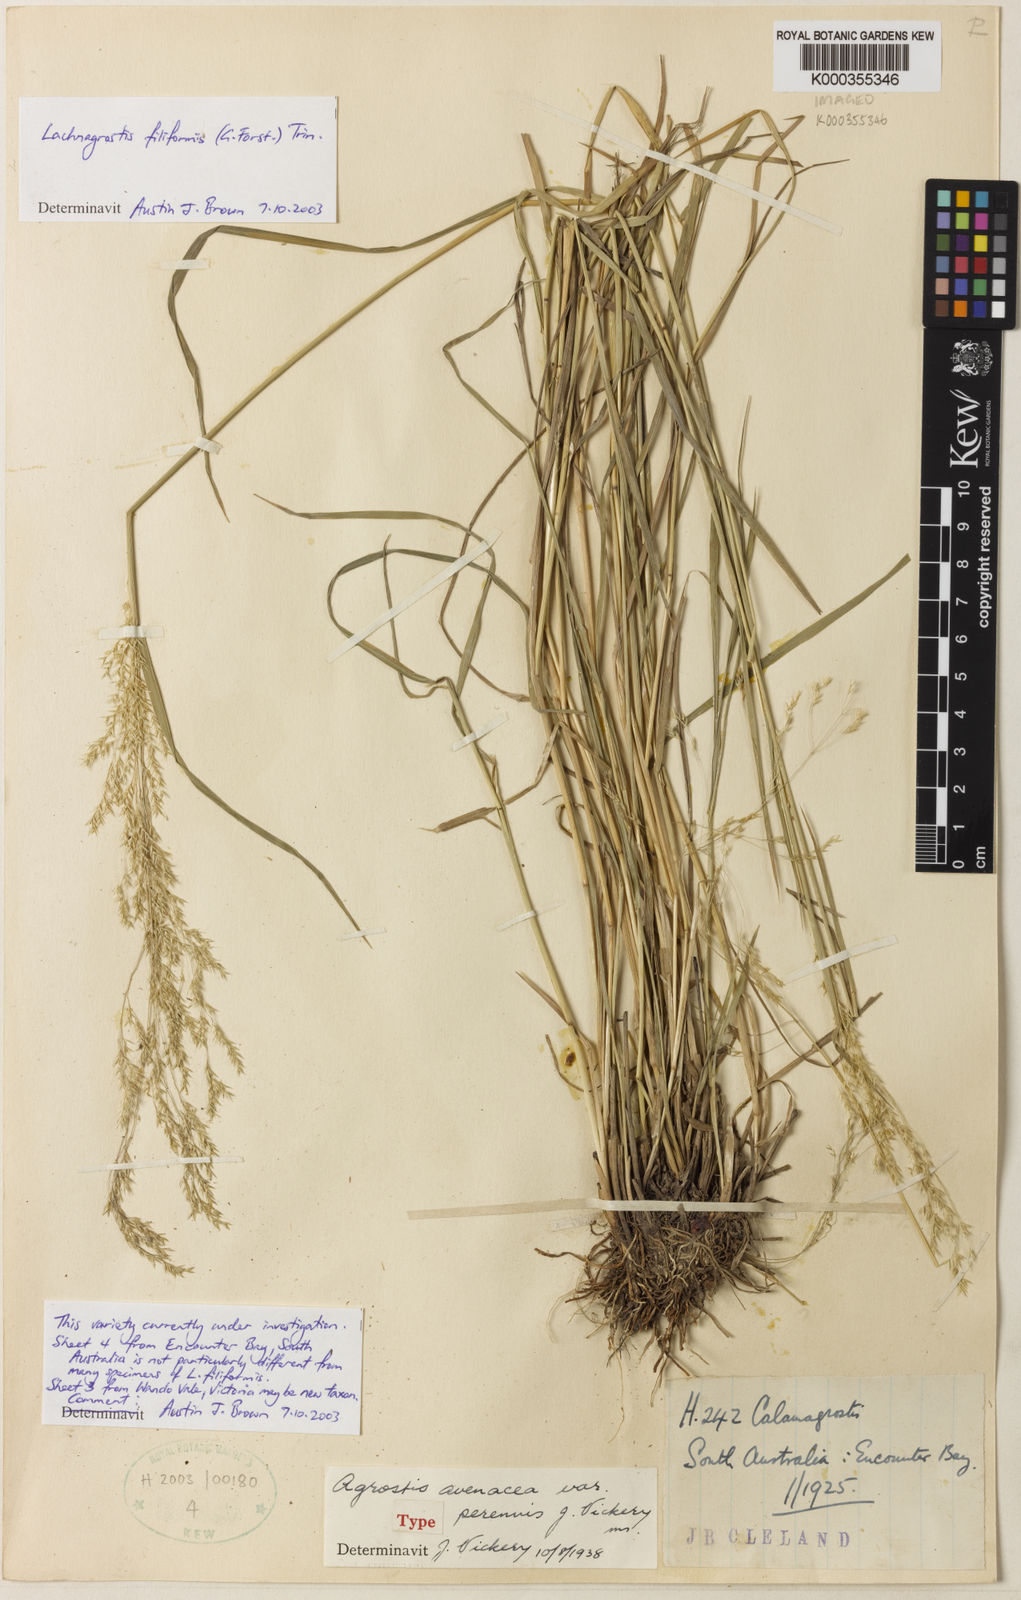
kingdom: Plantae
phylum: Tracheophyta
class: Liliopsida
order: Poales
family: Poaceae
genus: Lachnagrostis
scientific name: Lachnagrostis perennis
